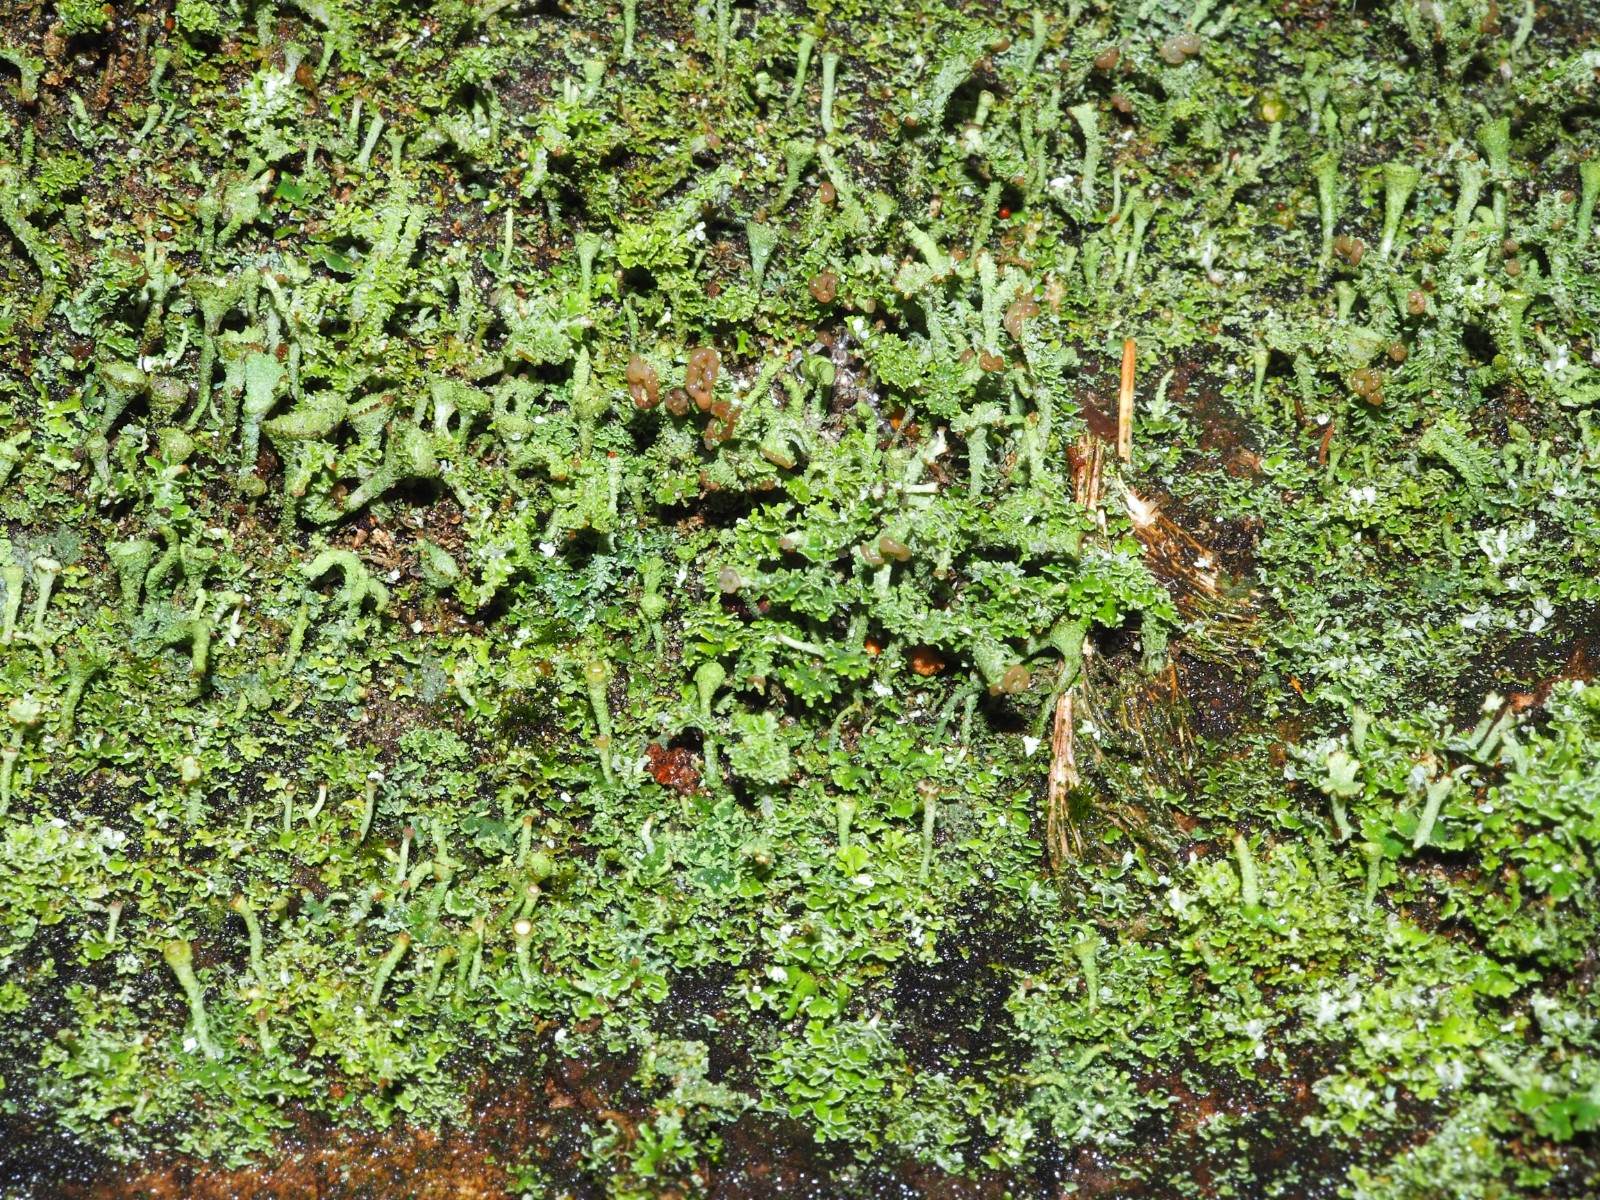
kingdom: Fungi
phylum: Ascomycota
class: Lecanoromycetes
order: Lecanorales
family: Cladoniaceae
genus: Cladonia
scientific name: Cladonia
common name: brungrøn bægerlav
